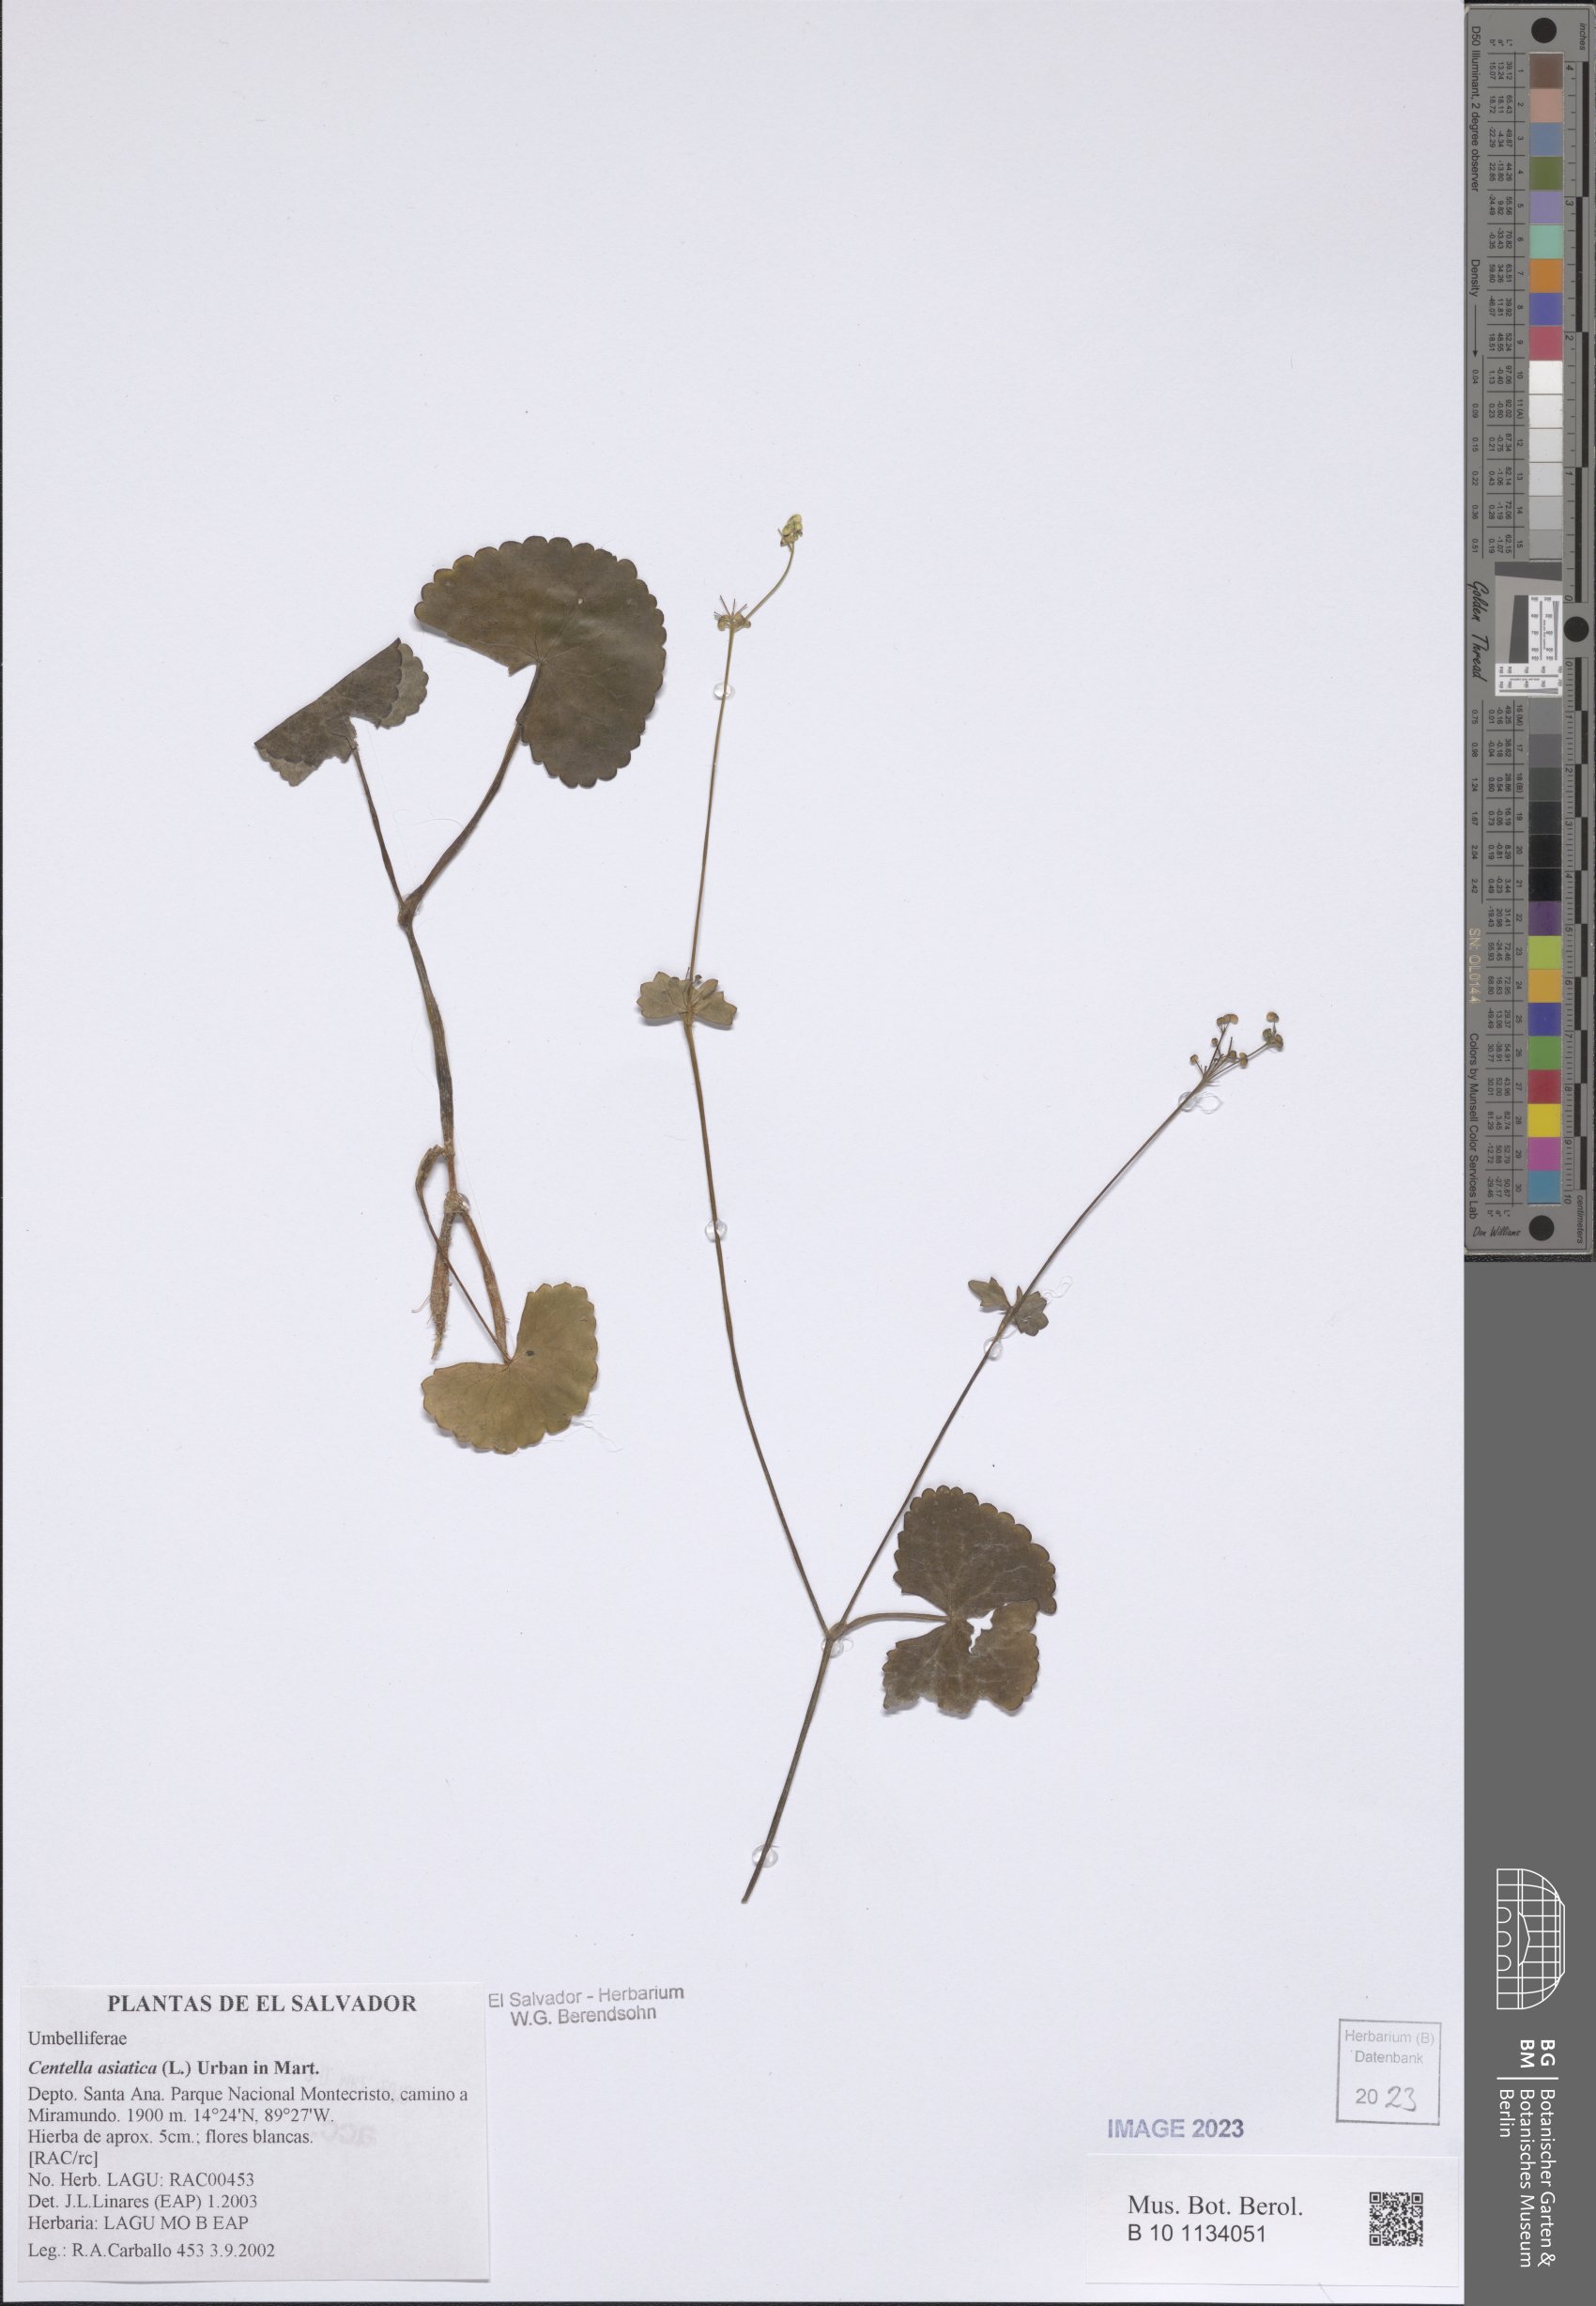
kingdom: Plantae
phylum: Tracheophyta
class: Magnoliopsida
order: Apiales
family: Apiaceae
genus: Centella
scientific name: Centella asiatica
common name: Spadeleaf
